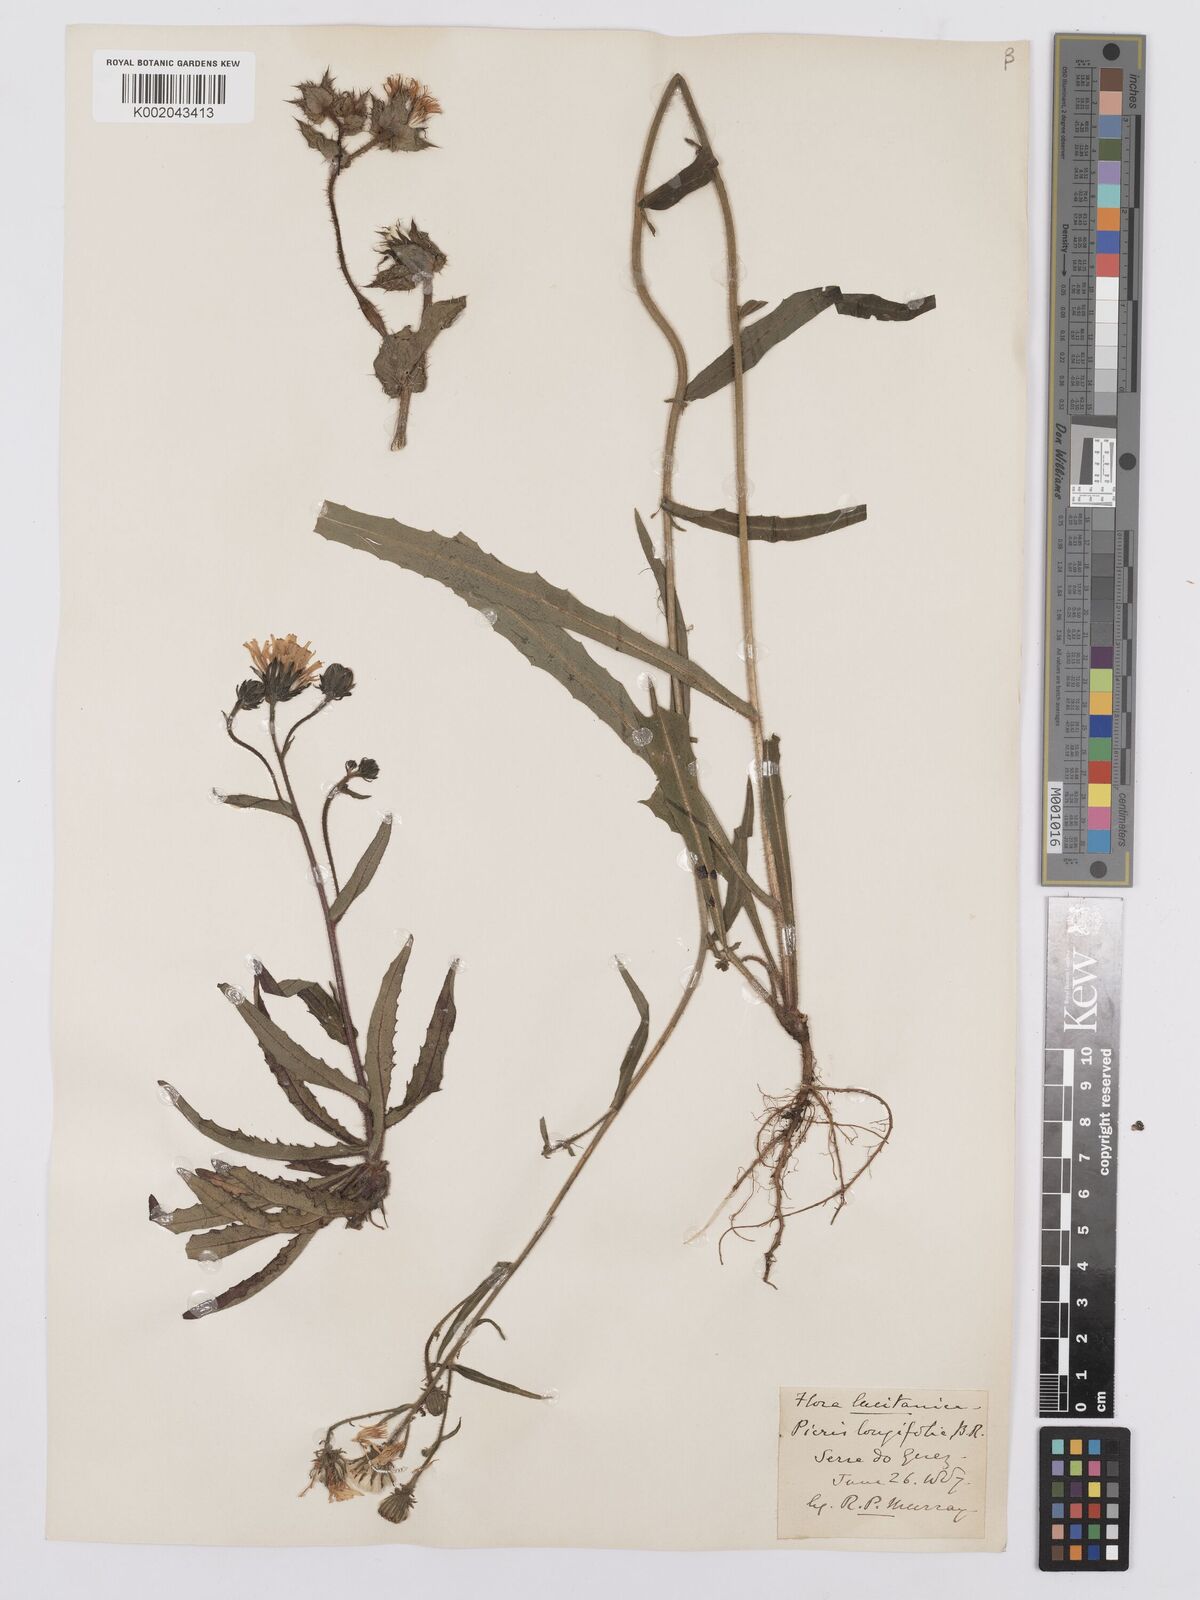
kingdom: Plantae
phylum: Tracheophyta
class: Magnoliopsida
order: Asterales
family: Asteraceae
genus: Picris
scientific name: Picris hieracioides
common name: Hawkweed oxtongue
